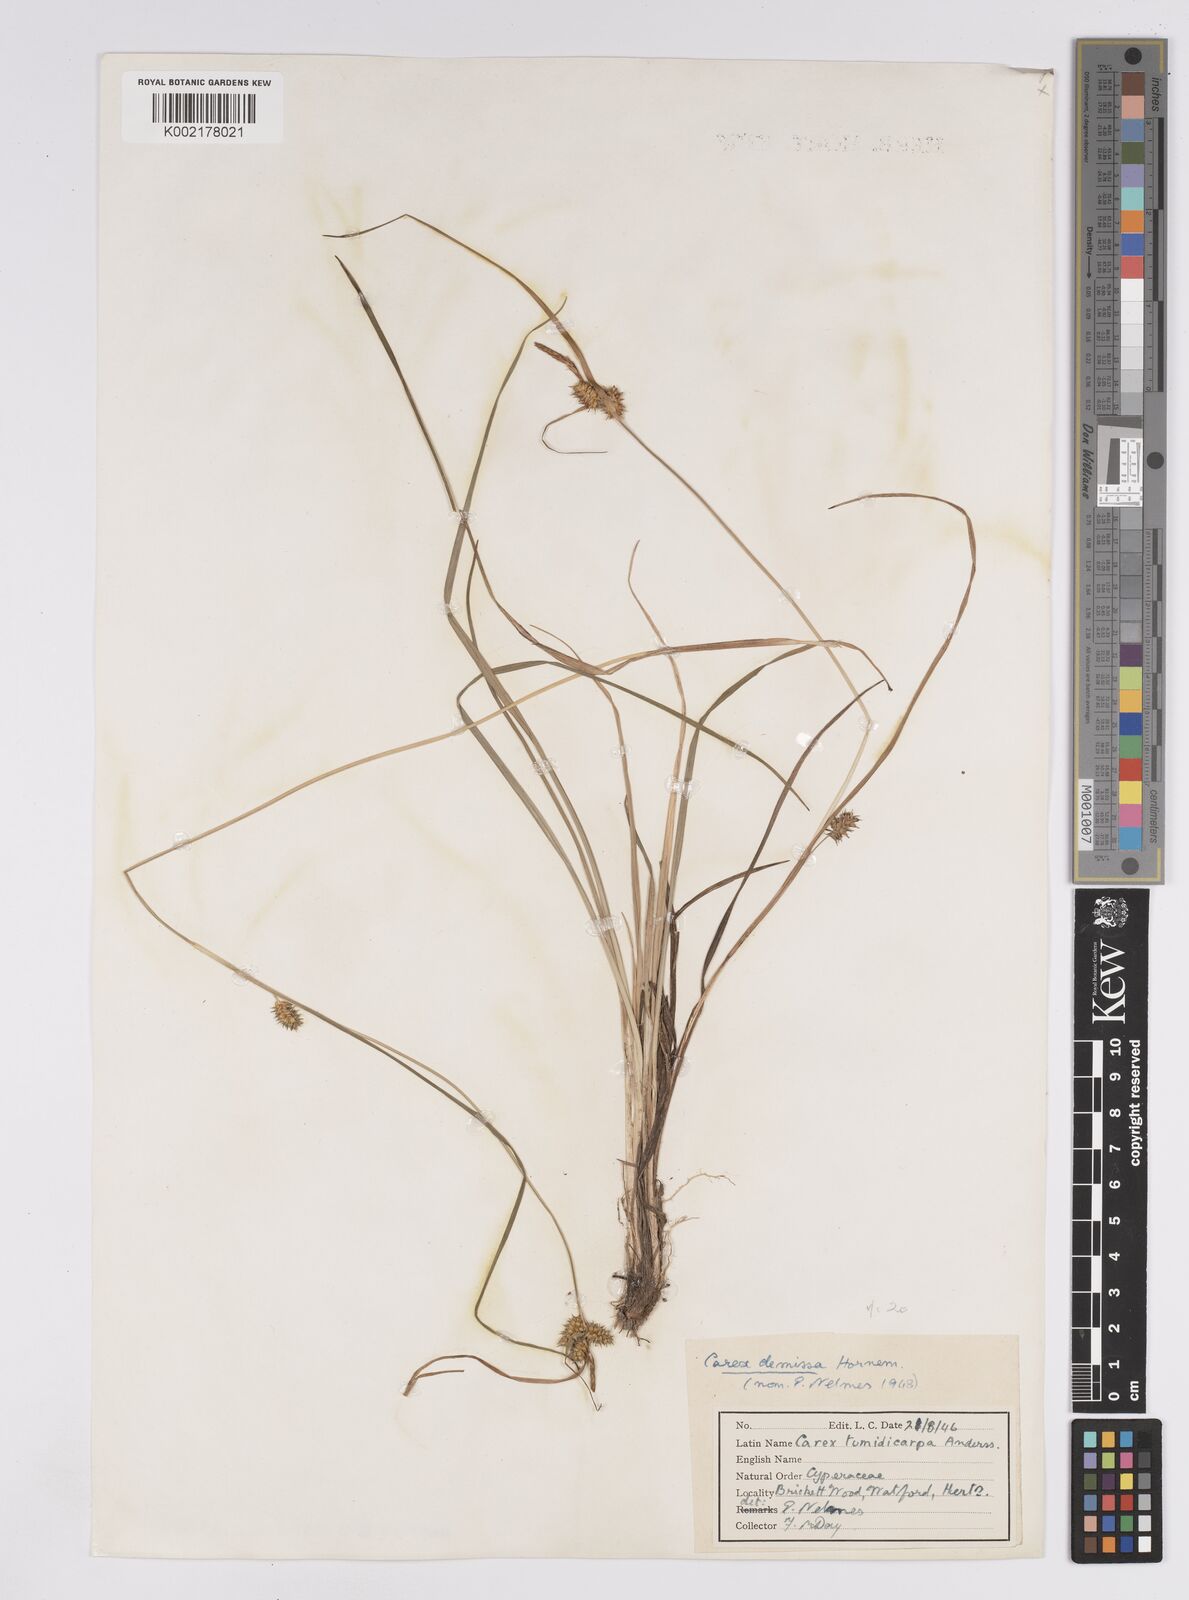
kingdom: Plantae
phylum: Tracheophyta
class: Liliopsida
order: Poales
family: Cyperaceae
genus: Carex
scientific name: Carex demissa
